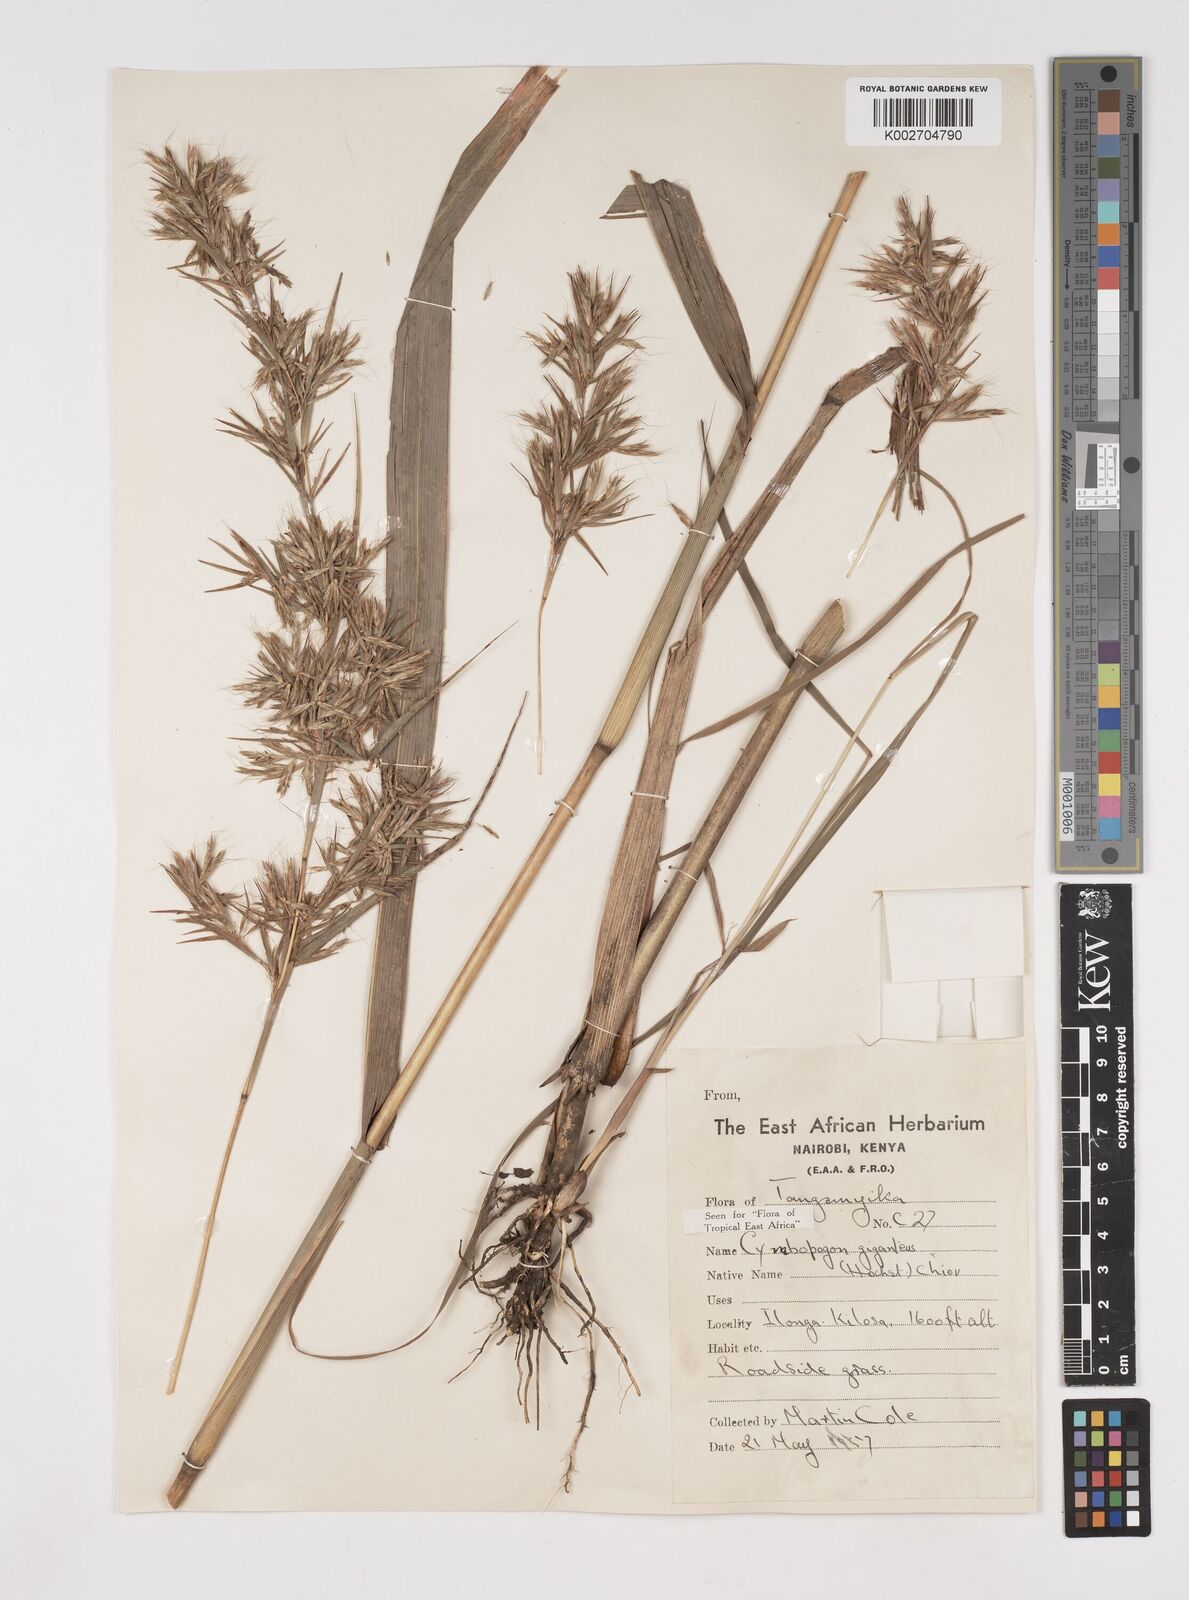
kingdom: Plantae
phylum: Tracheophyta
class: Liliopsida
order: Poales
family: Poaceae
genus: Cymbopogon
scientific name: Cymbopogon giganteus
